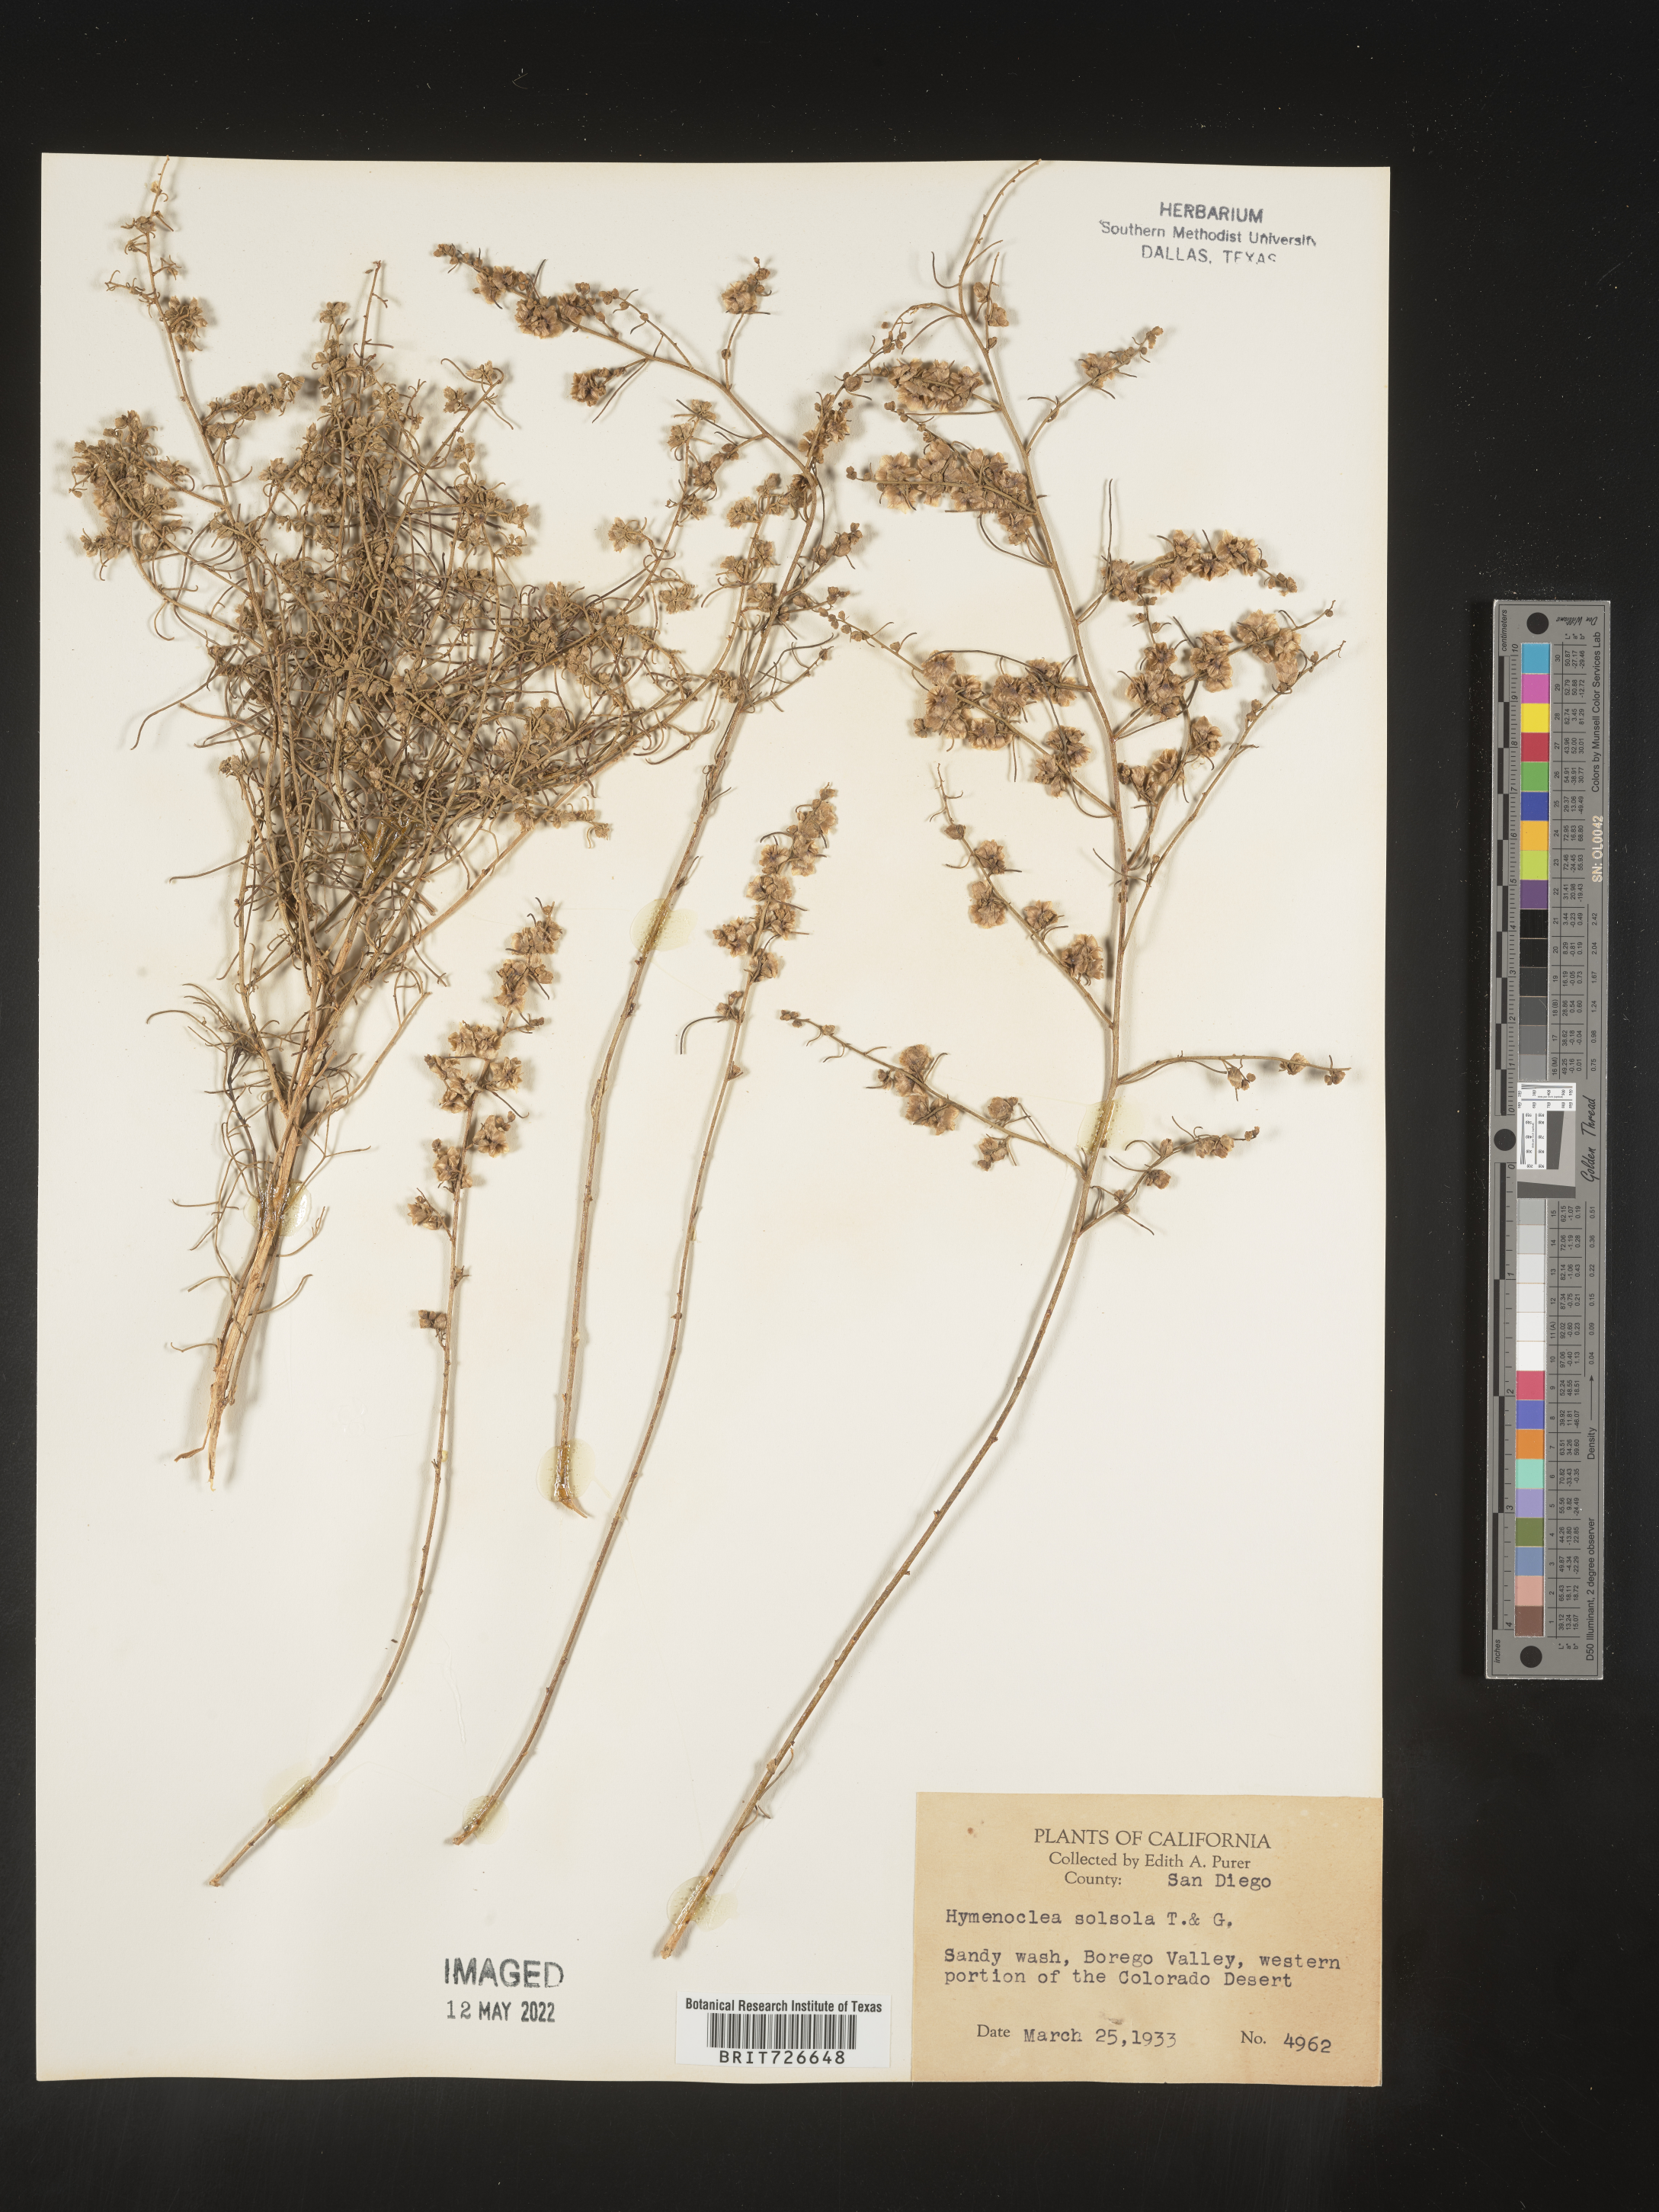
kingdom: Animalia
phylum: Arthropoda
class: Insecta
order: Lepidoptera
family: Sesiidae
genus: Hymenoclea
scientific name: Hymenoclea
